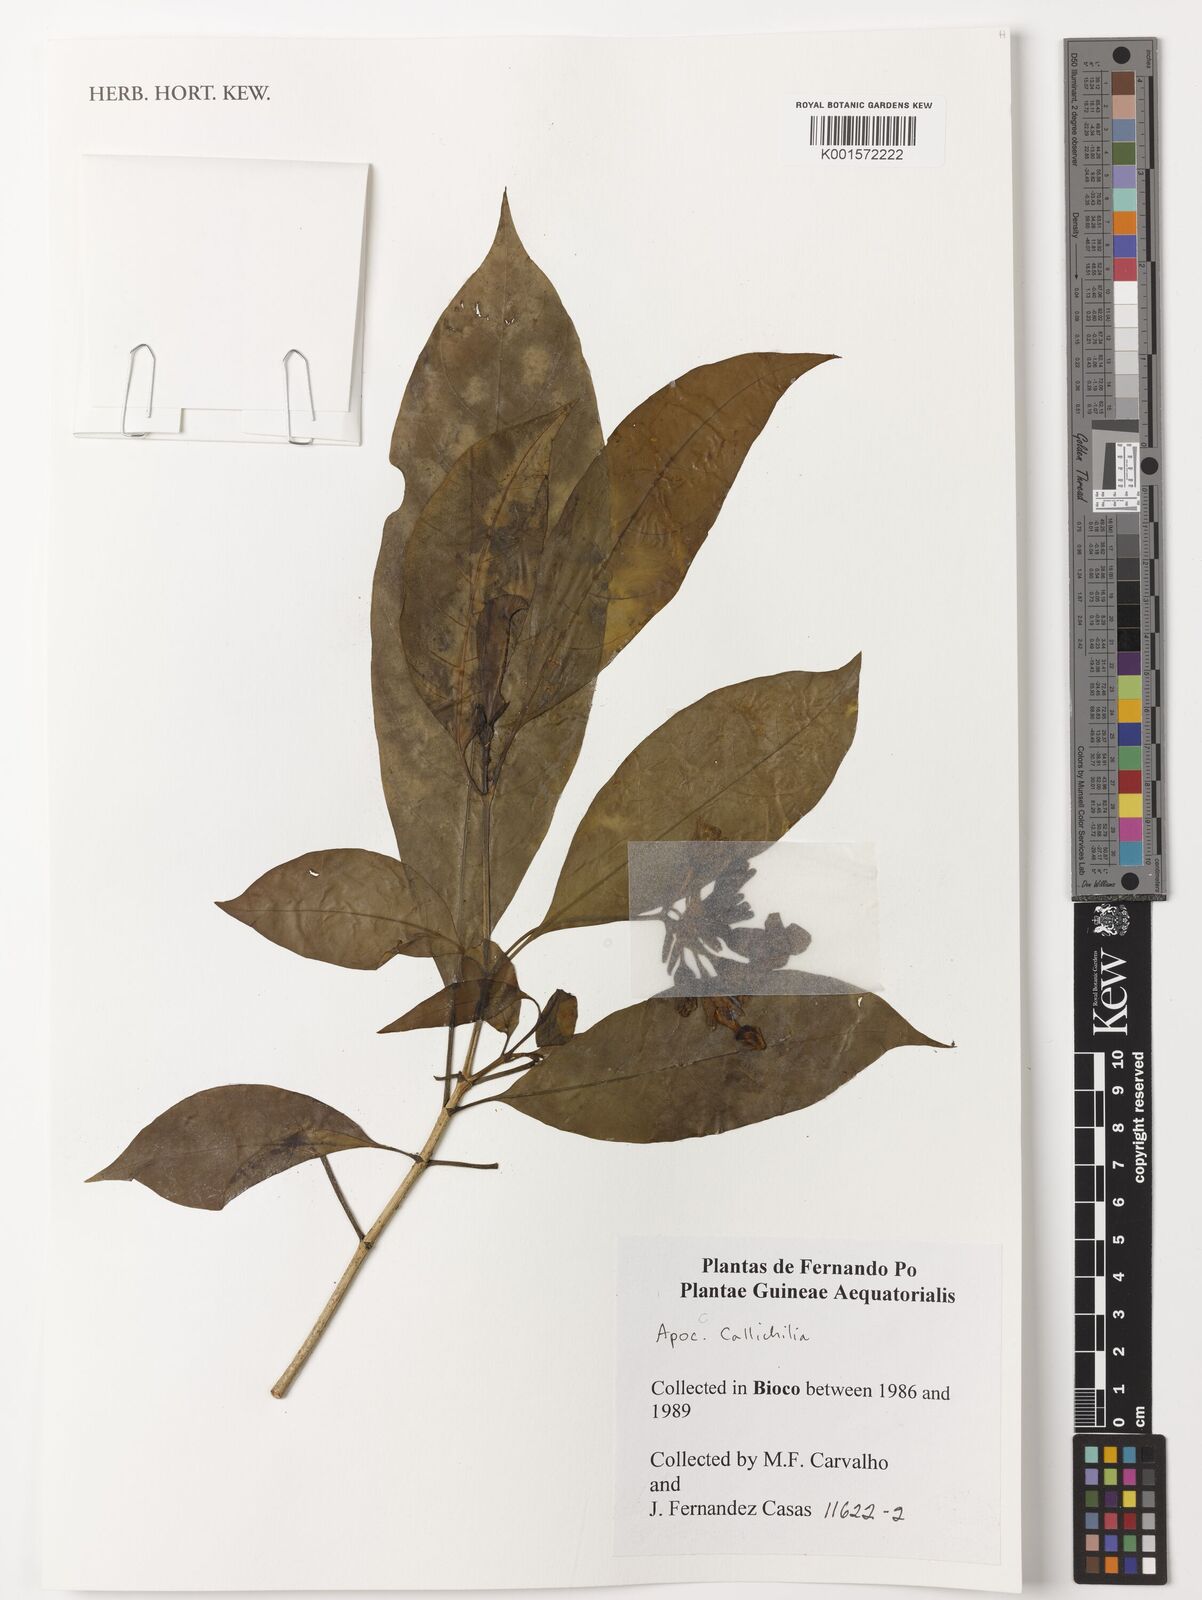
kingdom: Plantae
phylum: Tracheophyta
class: Magnoliopsida
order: Gentianales
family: Apocynaceae
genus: Callichilia
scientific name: Callichilia
